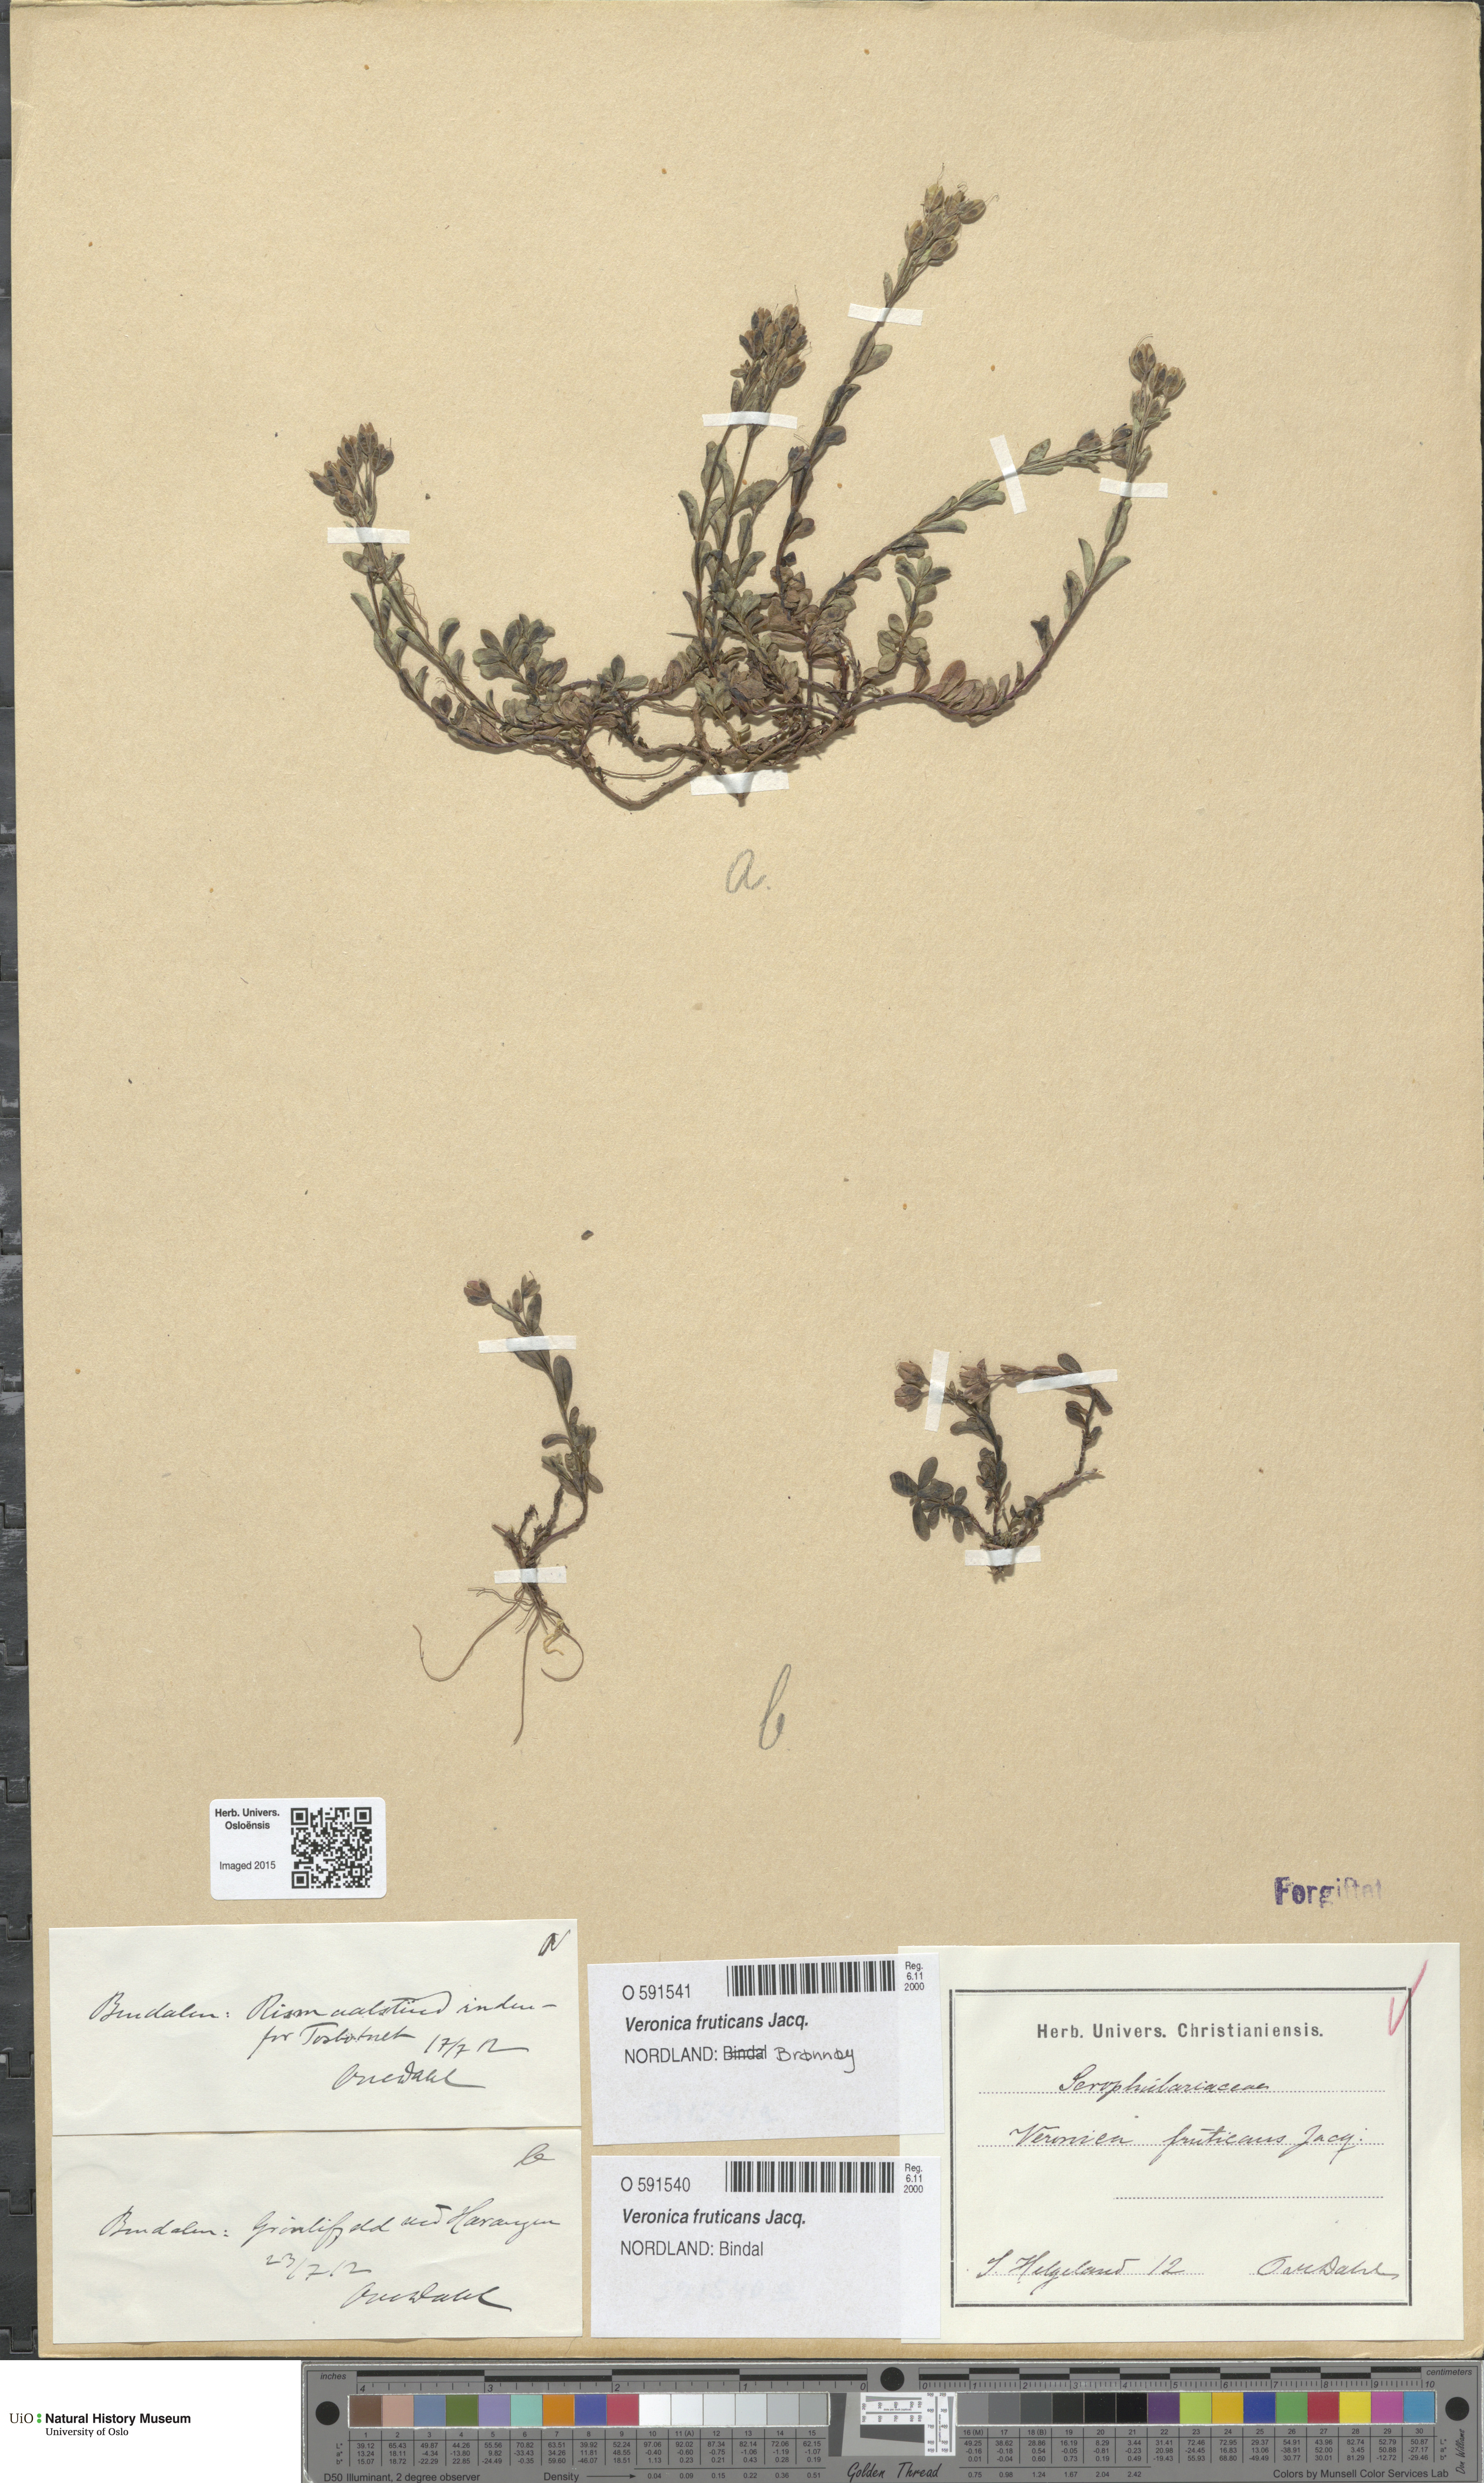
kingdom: Plantae
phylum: Tracheophyta
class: Magnoliopsida
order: Lamiales
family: Plantaginaceae
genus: Veronica
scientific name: Veronica fruticans
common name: Rock speedwell
